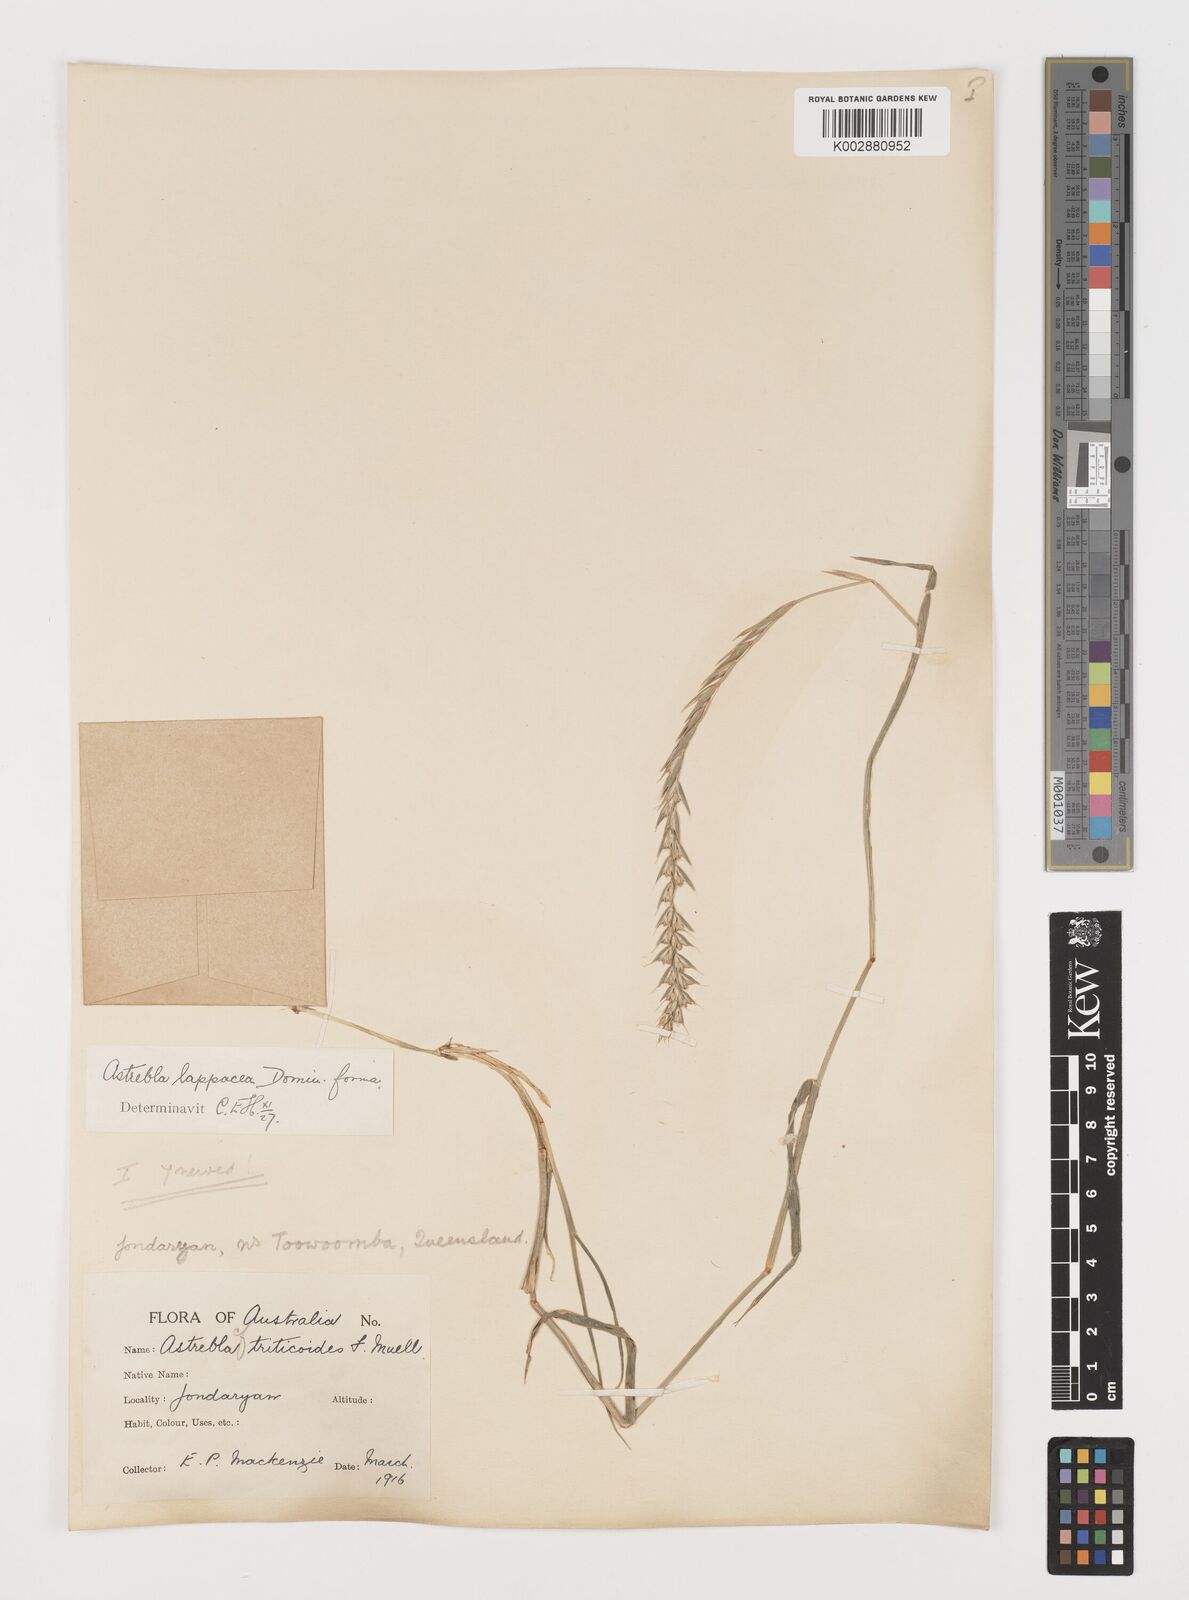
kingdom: Plantae
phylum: Tracheophyta
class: Liliopsida
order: Poales
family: Poaceae
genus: Astrebla
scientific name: Astrebla lappacea
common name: Curly mitchell grass
